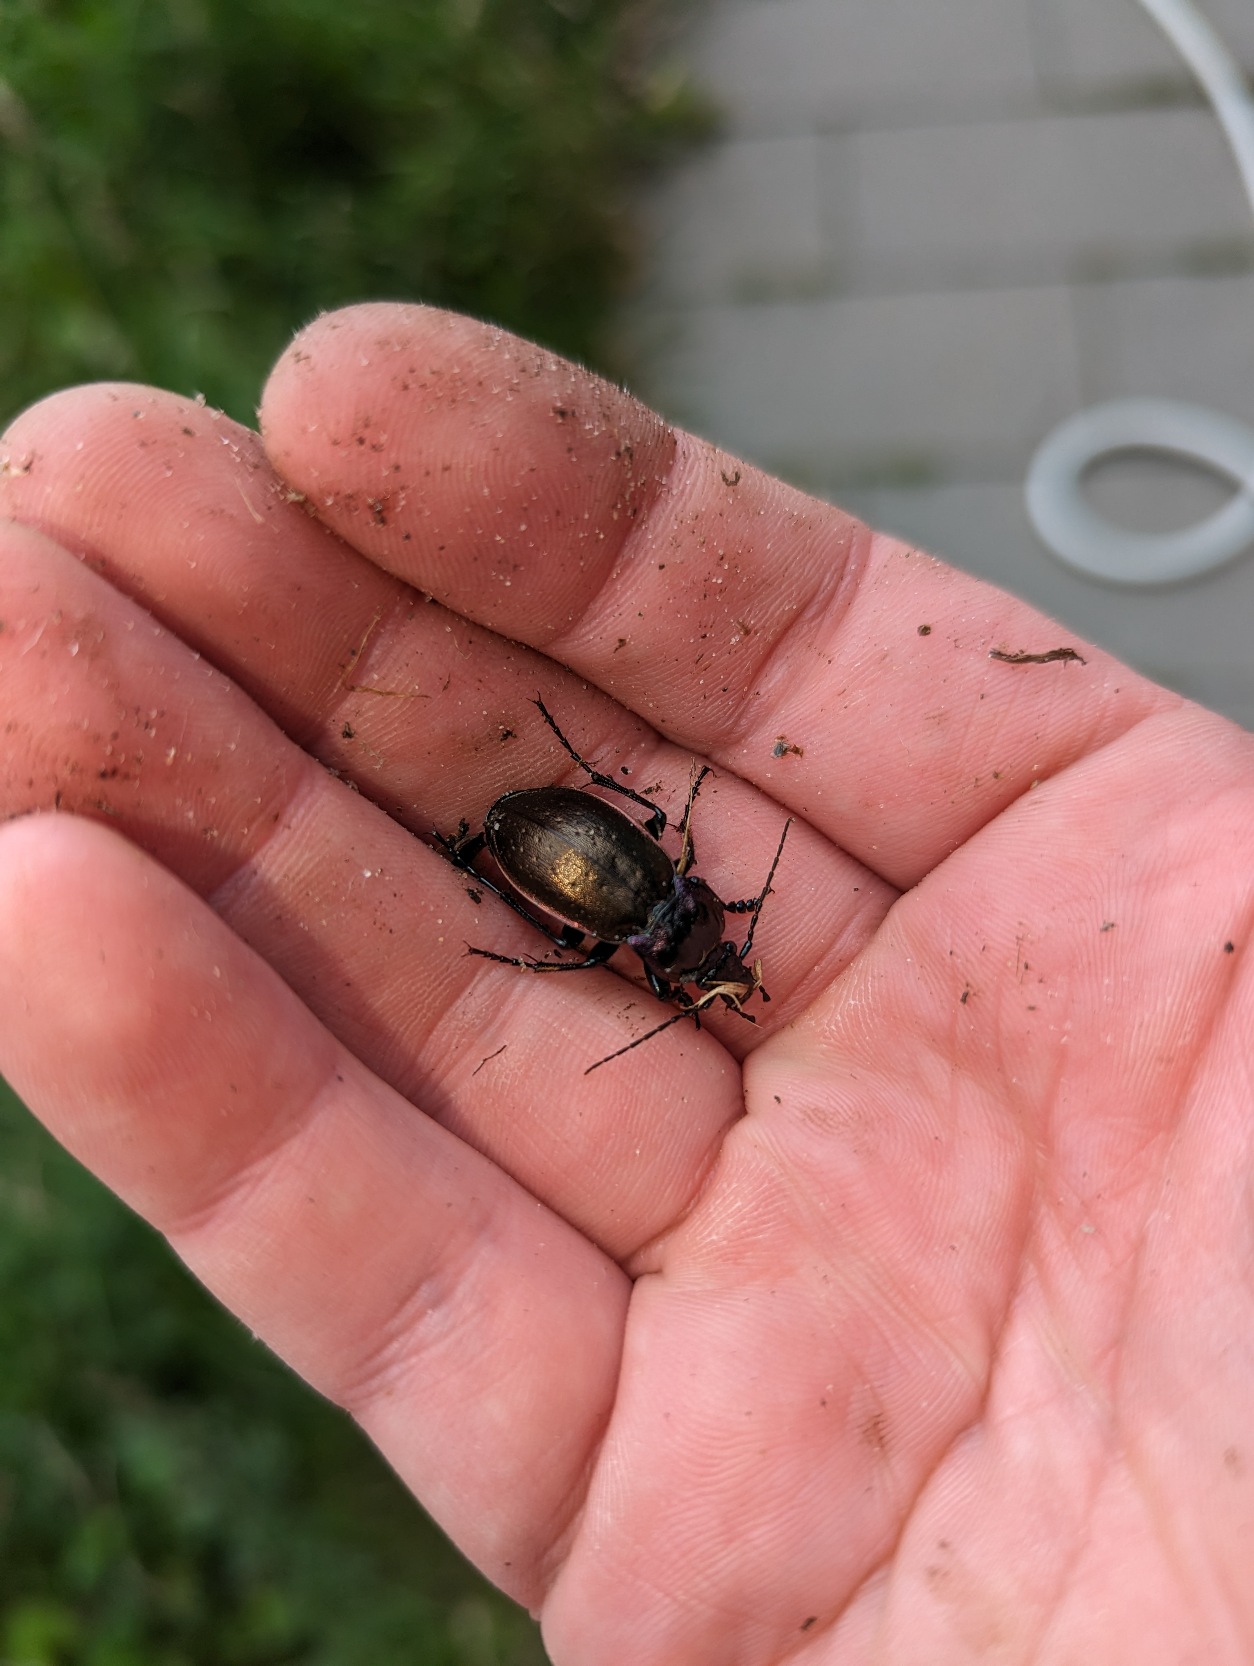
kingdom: Animalia
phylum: Arthropoda
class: Insecta
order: Coleoptera
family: Carabidae
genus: Carabus
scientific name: Carabus nemoralis
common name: Kratløber
